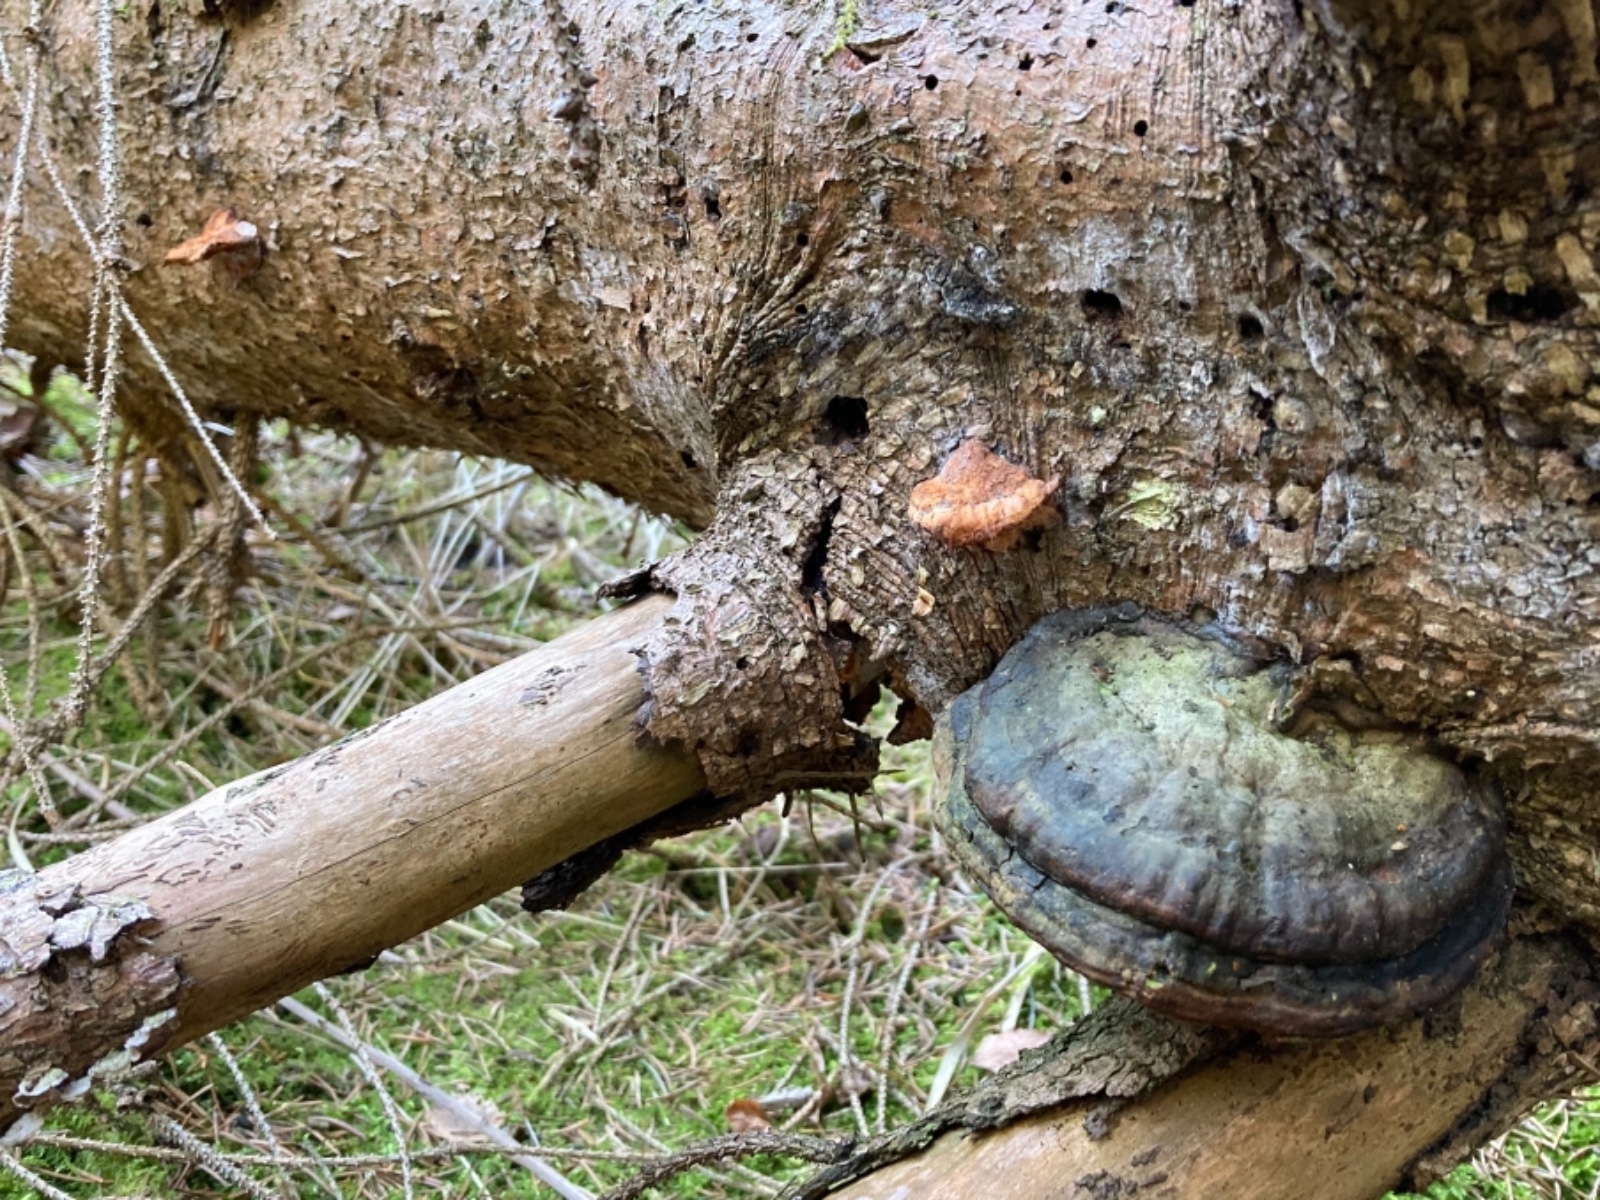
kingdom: Fungi
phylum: Basidiomycota
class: Agaricomycetes
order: Polyporales
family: Pycnoporellaceae
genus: Pycnoporellus
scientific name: Pycnoporellus fulgens
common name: flammeporesvamp
